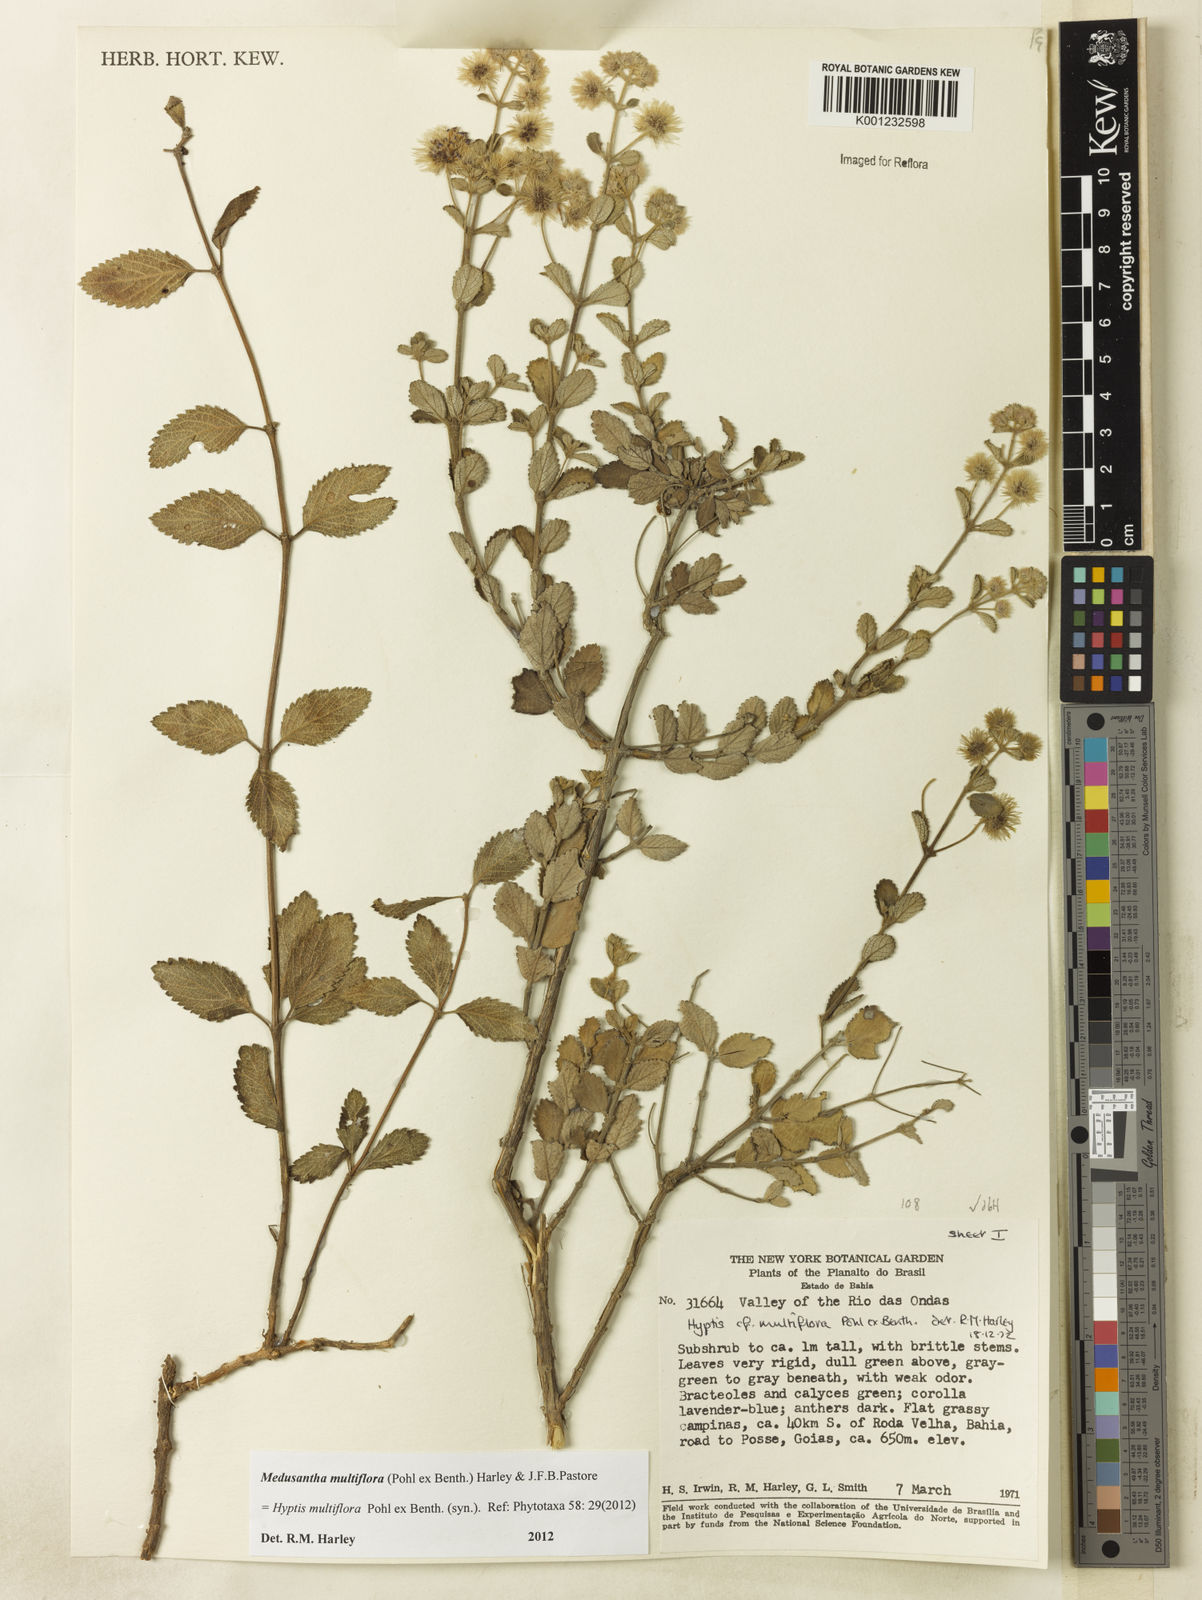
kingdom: Plantae
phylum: Tracheophyta
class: Magnoliopsida
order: Lamiales
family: Lamiaceae
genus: Medusantha
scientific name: Medusantha multiflora
